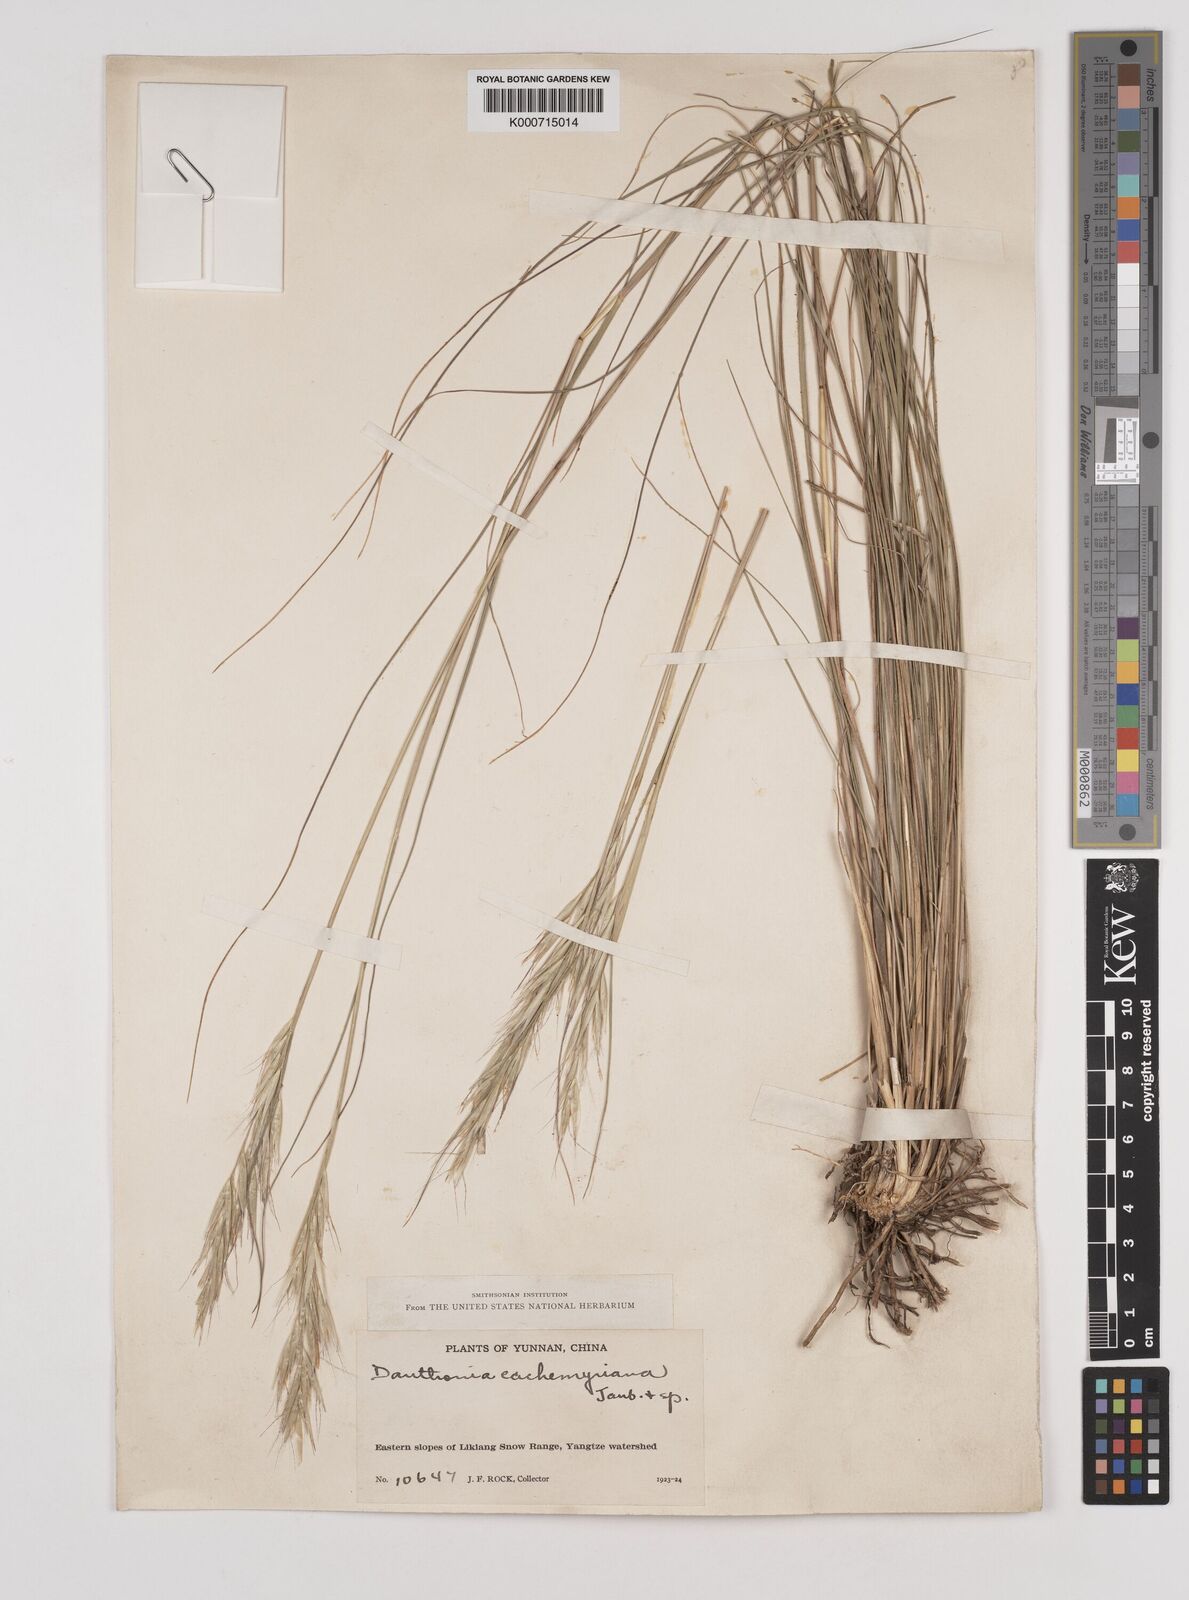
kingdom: Plantae
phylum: Tracheophyta
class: Liliopsida
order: Poales
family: Poaceae
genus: Rytidosperma
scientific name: Rytidosperma
